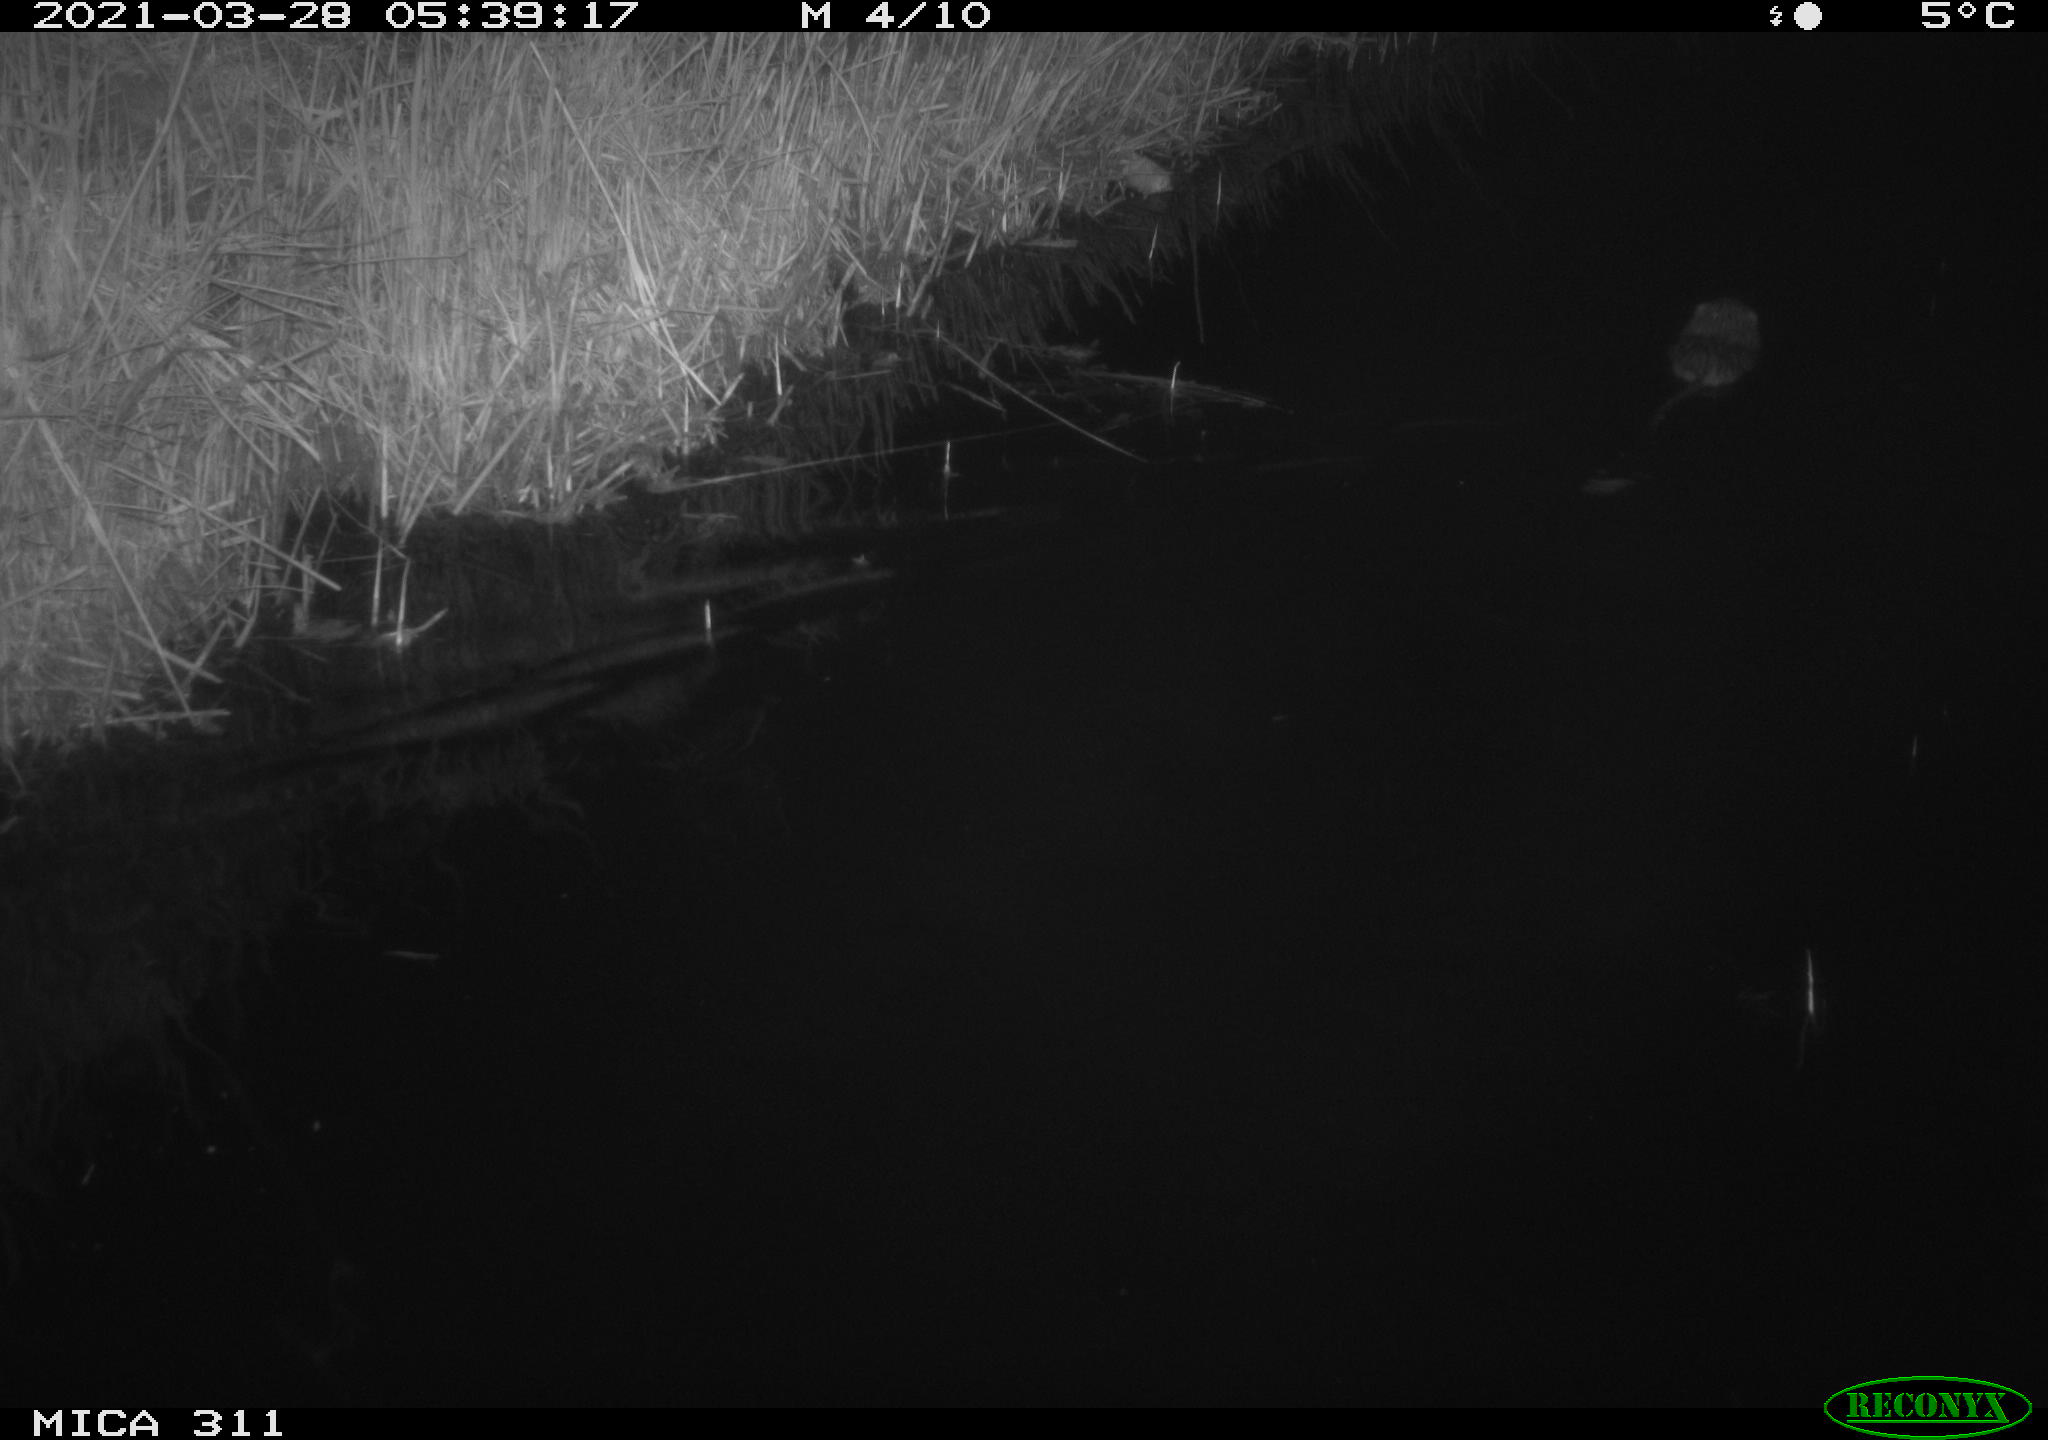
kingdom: Animalia
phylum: Chordata
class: Mammalia
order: Rodentia
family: Cricetidae
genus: Ondatra
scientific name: Ondatra zibethicus
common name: Muskrat
